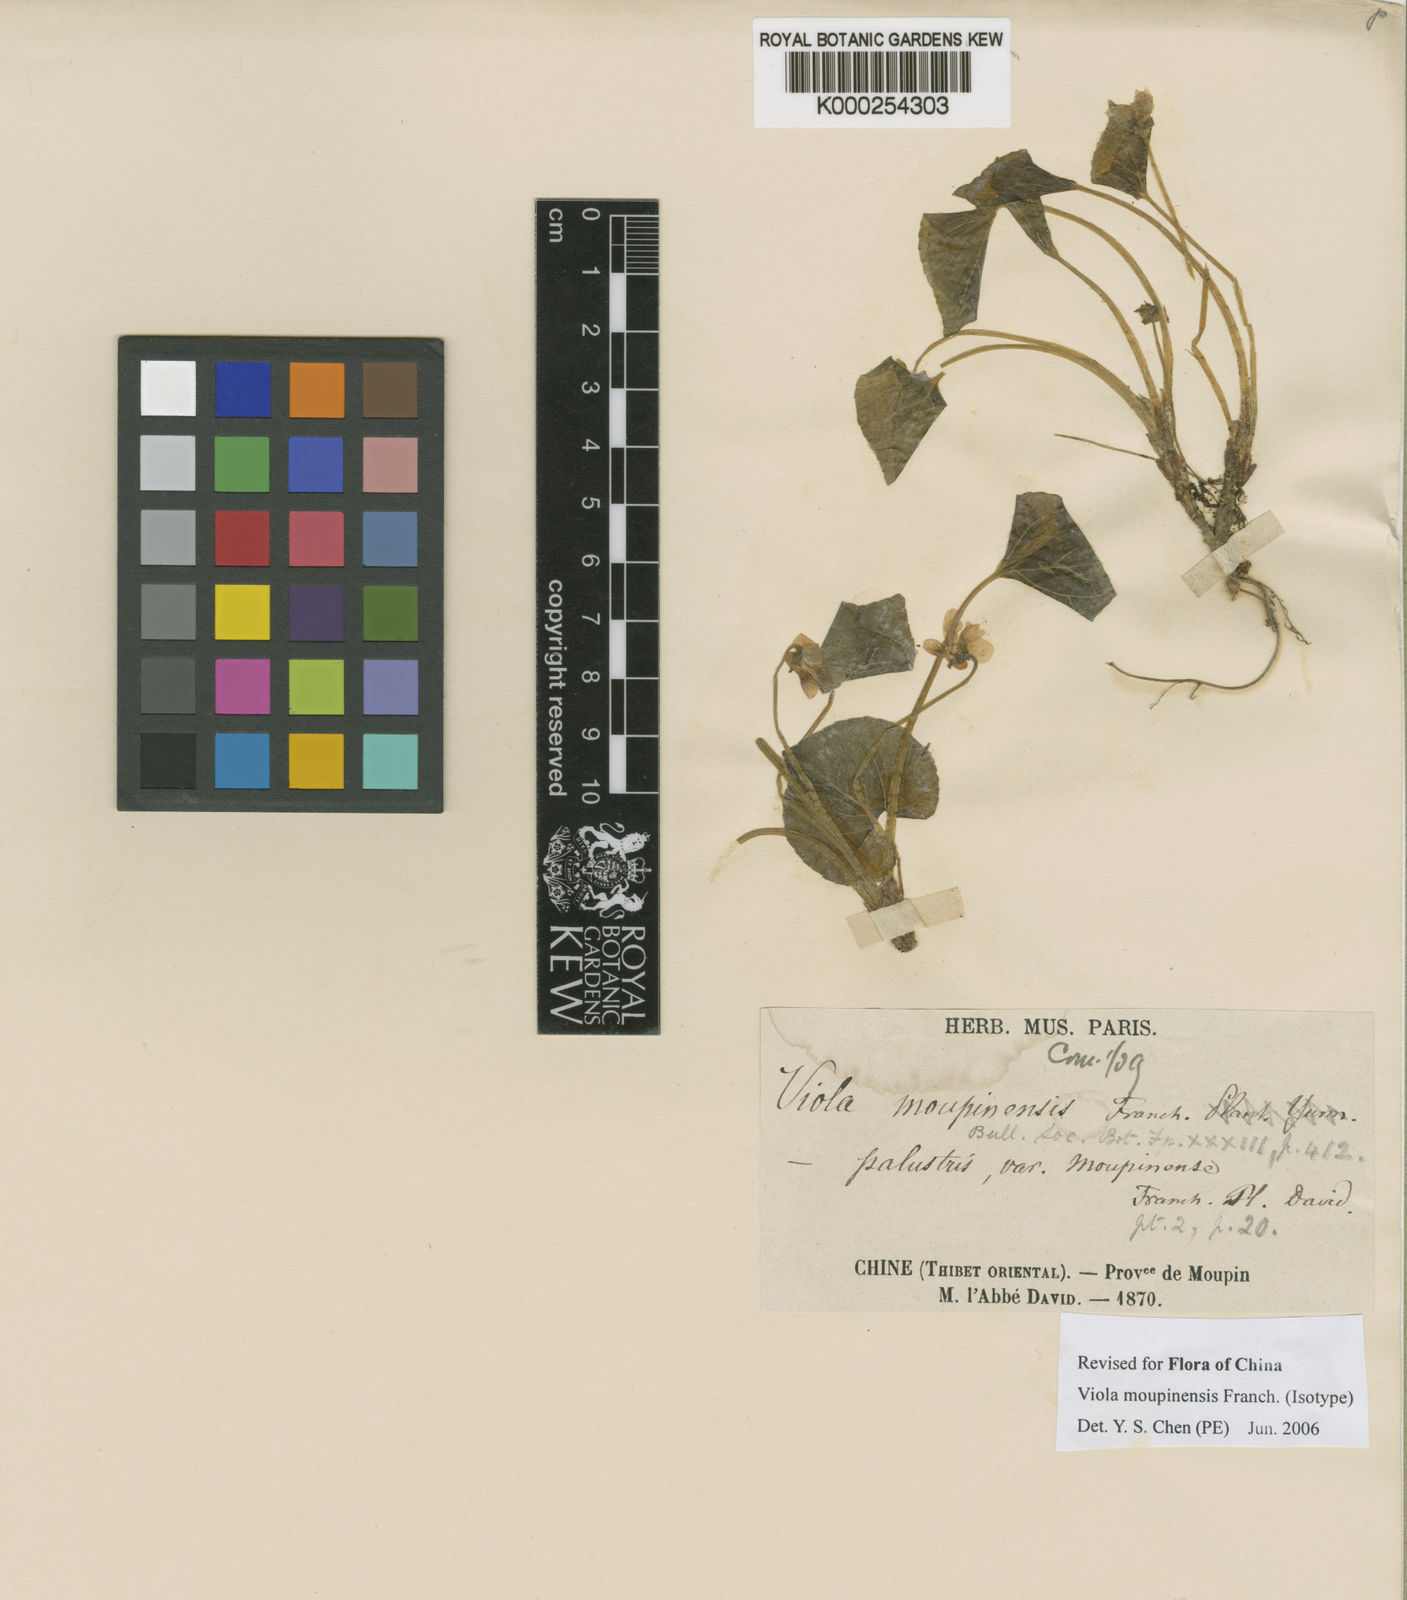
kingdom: Plantae
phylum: Tracheophyta
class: Magnoliopsida
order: Malpighiales
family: Violaceae
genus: Viola
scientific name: Viola moupinensis
